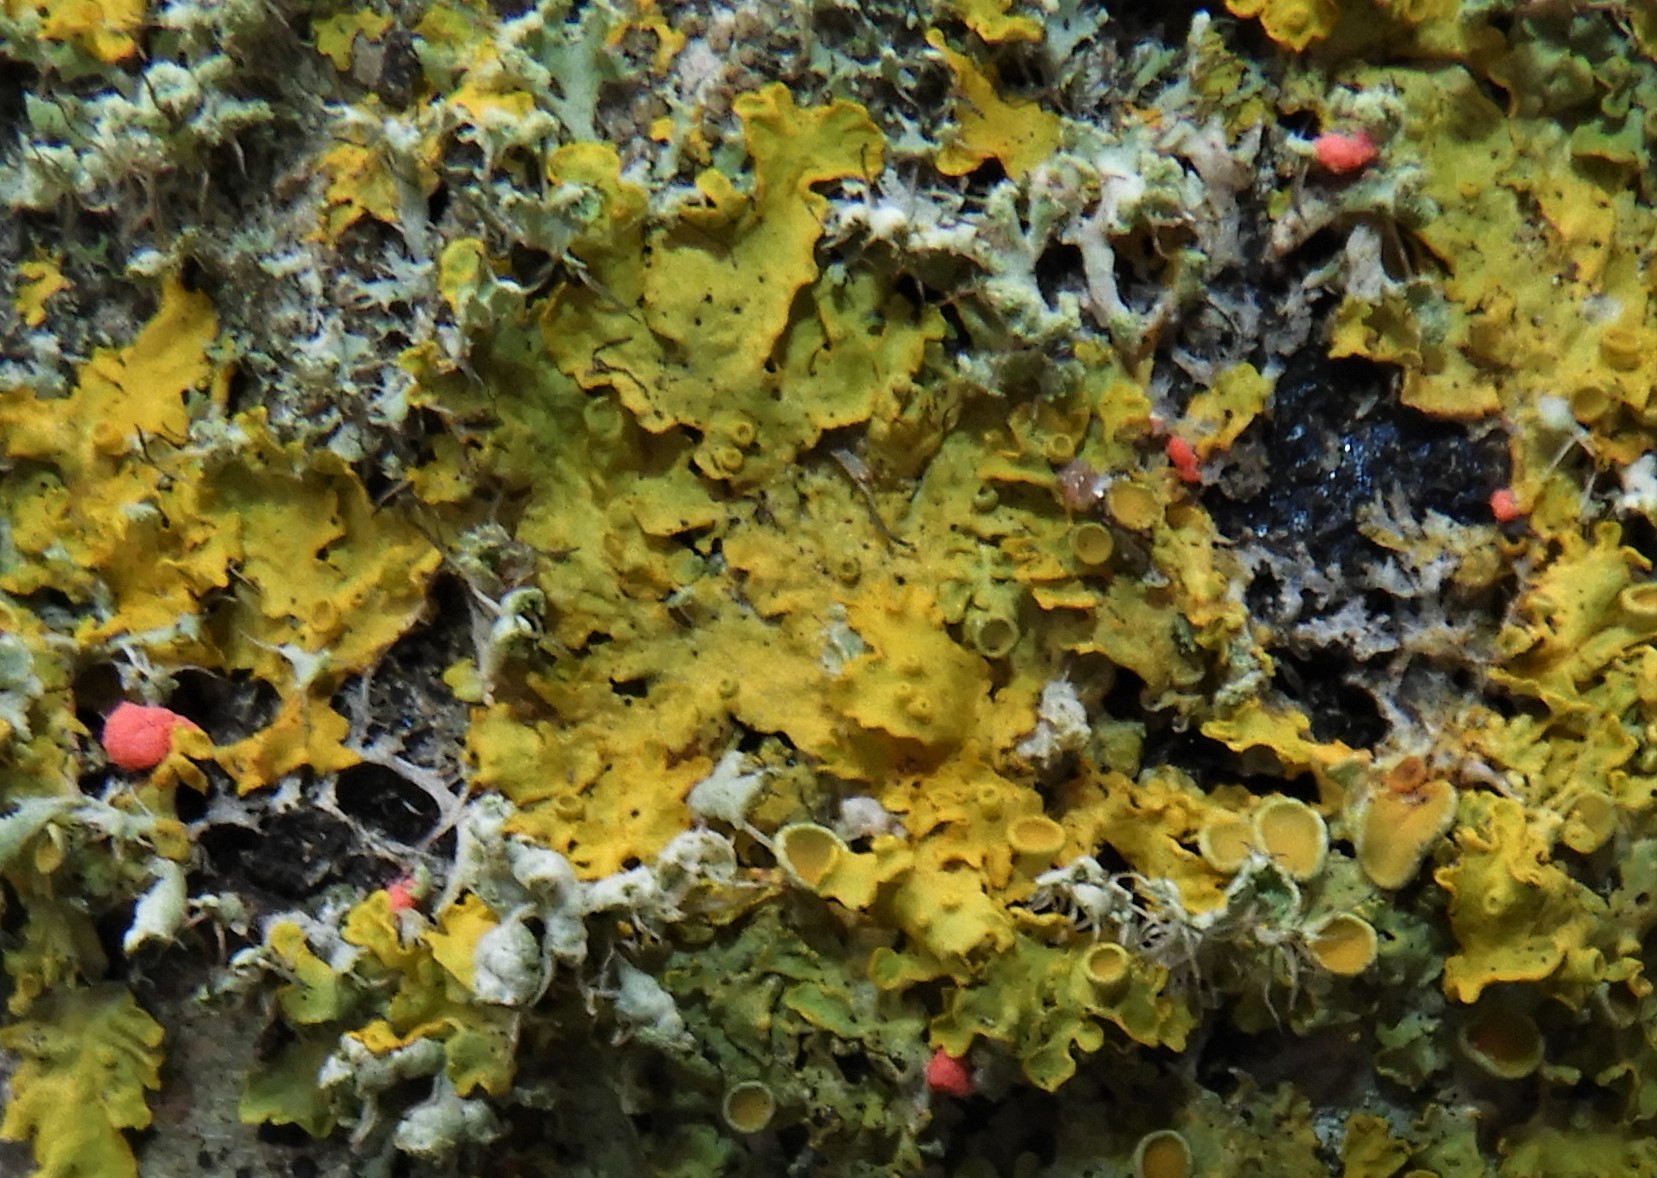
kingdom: Fungi
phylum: Ascomycota
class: Sordariomycetes
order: Hypocreales
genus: Illosporiopsis
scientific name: Illosporiopsis christiansenii
